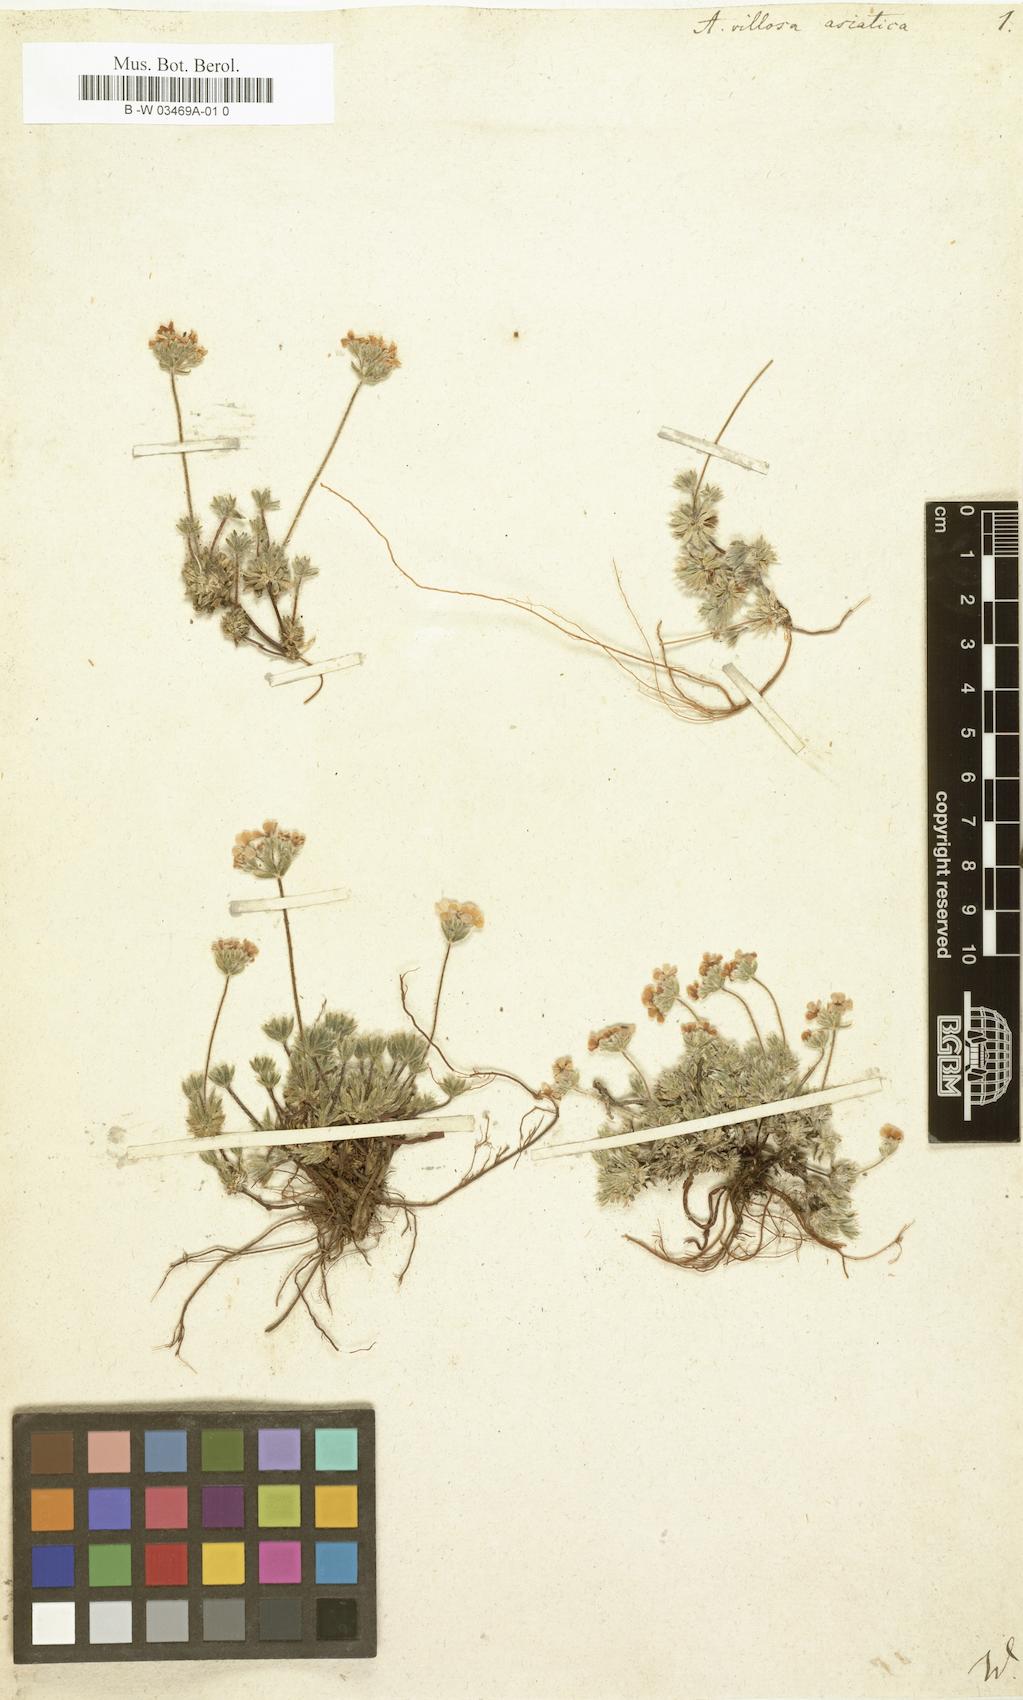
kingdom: Plantae
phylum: Tracheophyta
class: Magnoliopsida
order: Ericales
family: Primulaceae
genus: Androsace
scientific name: Androsace villosa
